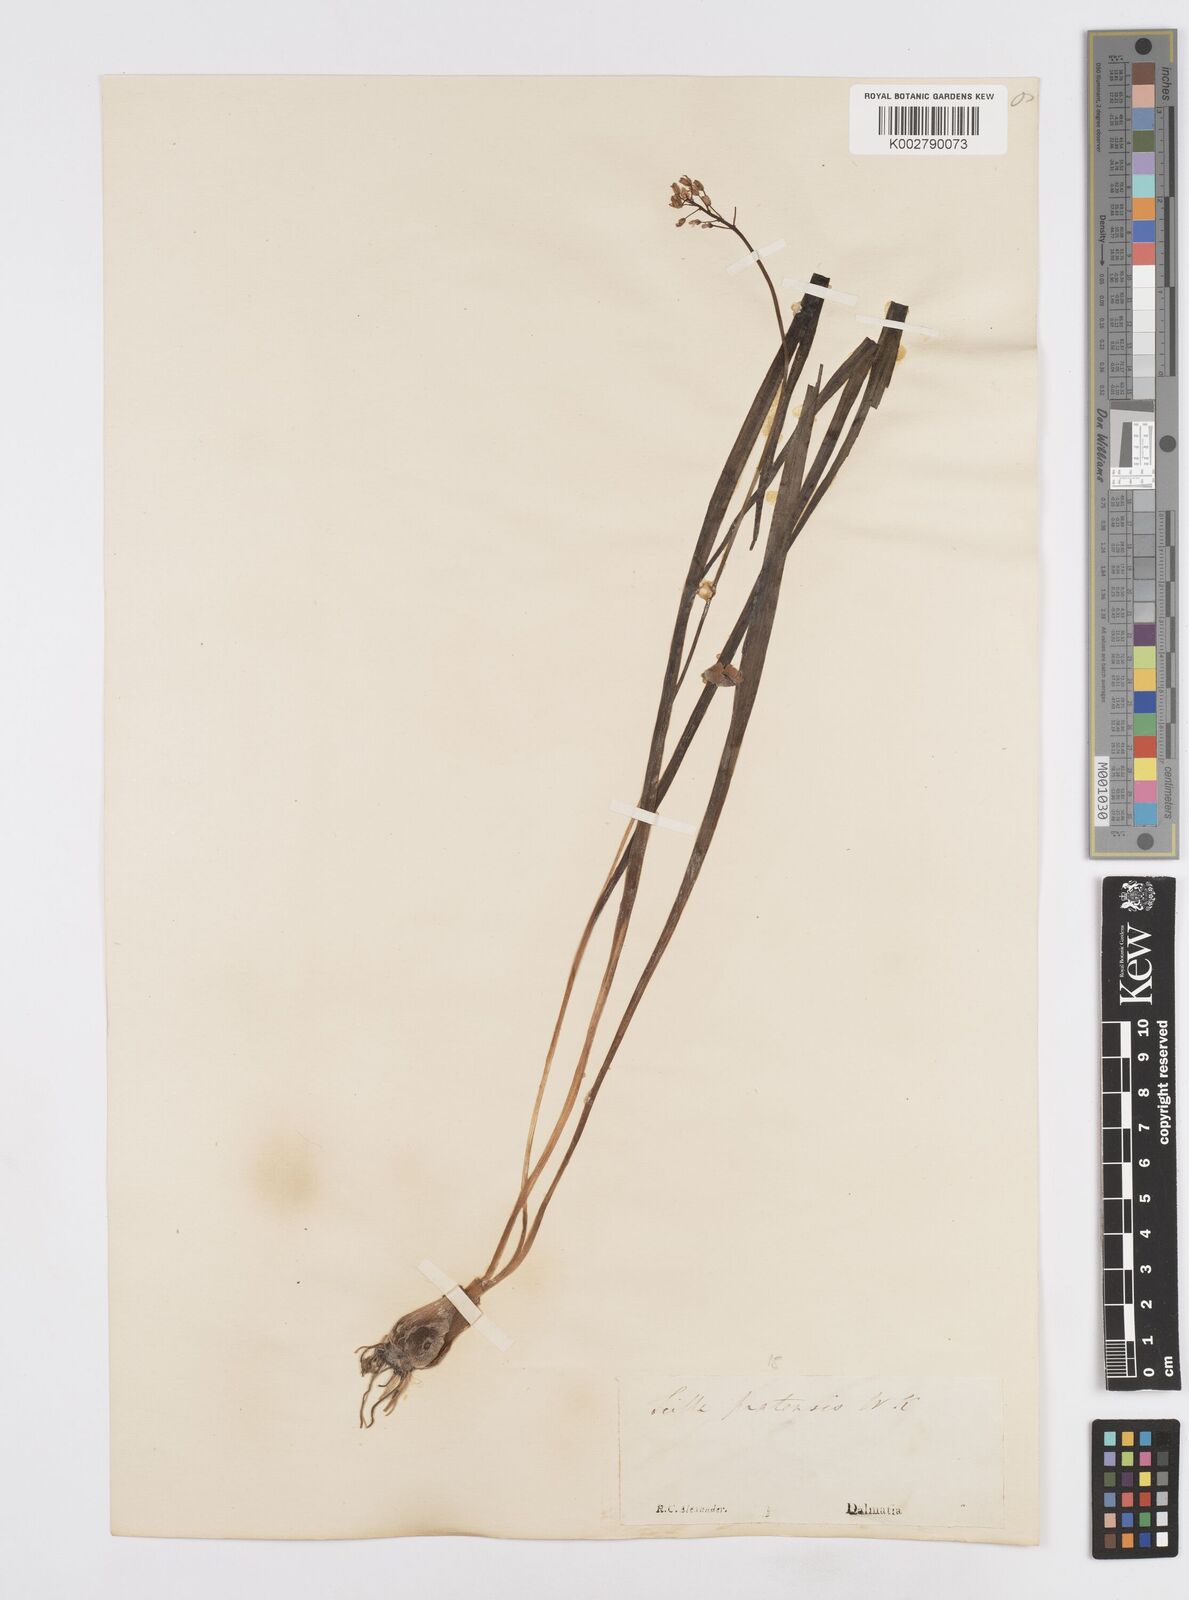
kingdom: Plantae
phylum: Tracheophyta
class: Liliopsida
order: Asparagales
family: Asparagaceae
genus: Scilla
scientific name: Scilla litardierei
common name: Amethyst meadow squill
